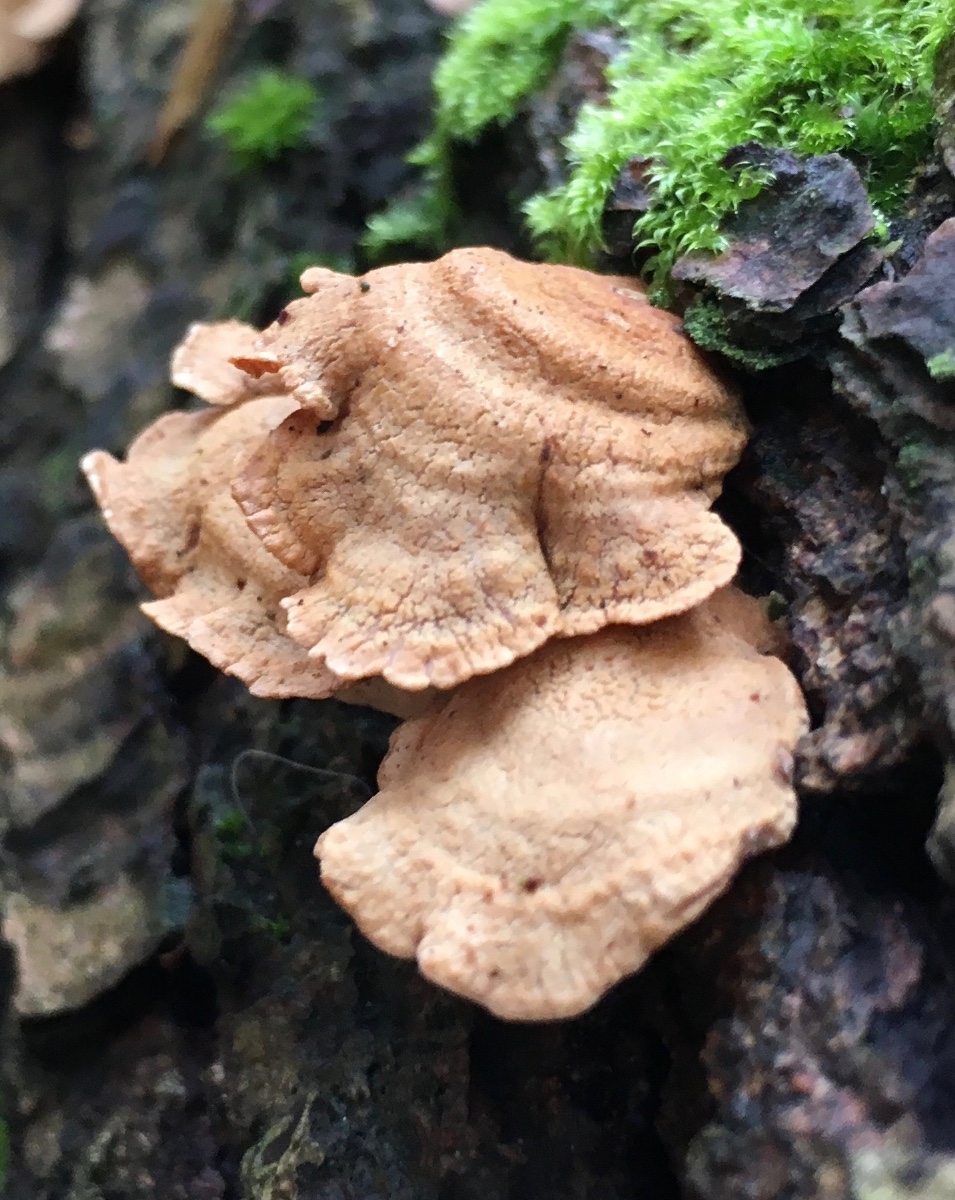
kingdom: Fungi
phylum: Basidiomycota
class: Agaricomycetes
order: Agaricales
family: Mycenaceae
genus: Panellus
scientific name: Panellus stipticus
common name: kliddet epaulethat
